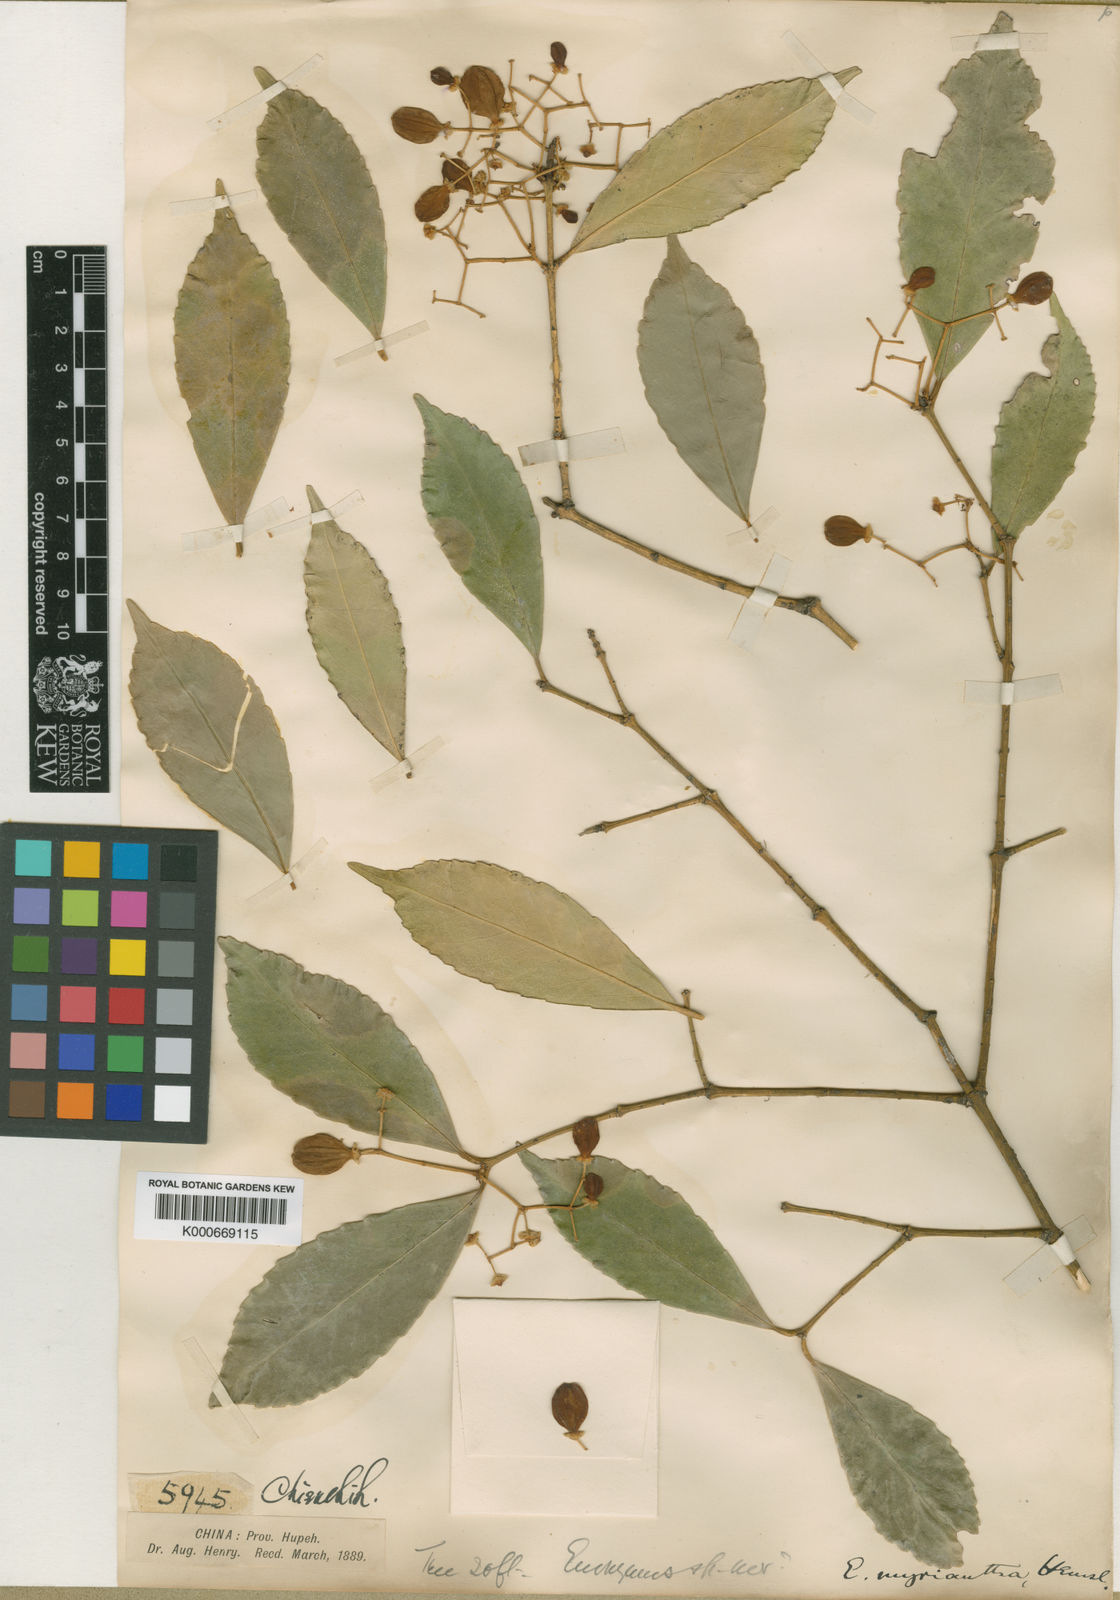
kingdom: Plantae
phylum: Tracheophyta
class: Magnoliopsida
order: Celastrales
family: Celastraceae
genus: Euonymus
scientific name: Euonymus myrianthus
